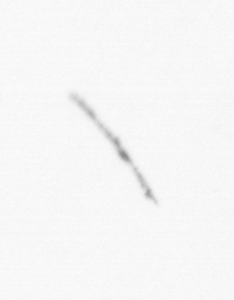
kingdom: Chromista
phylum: Ochrophyta
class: Bacillariophyceae
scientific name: Bacillariophyceae
